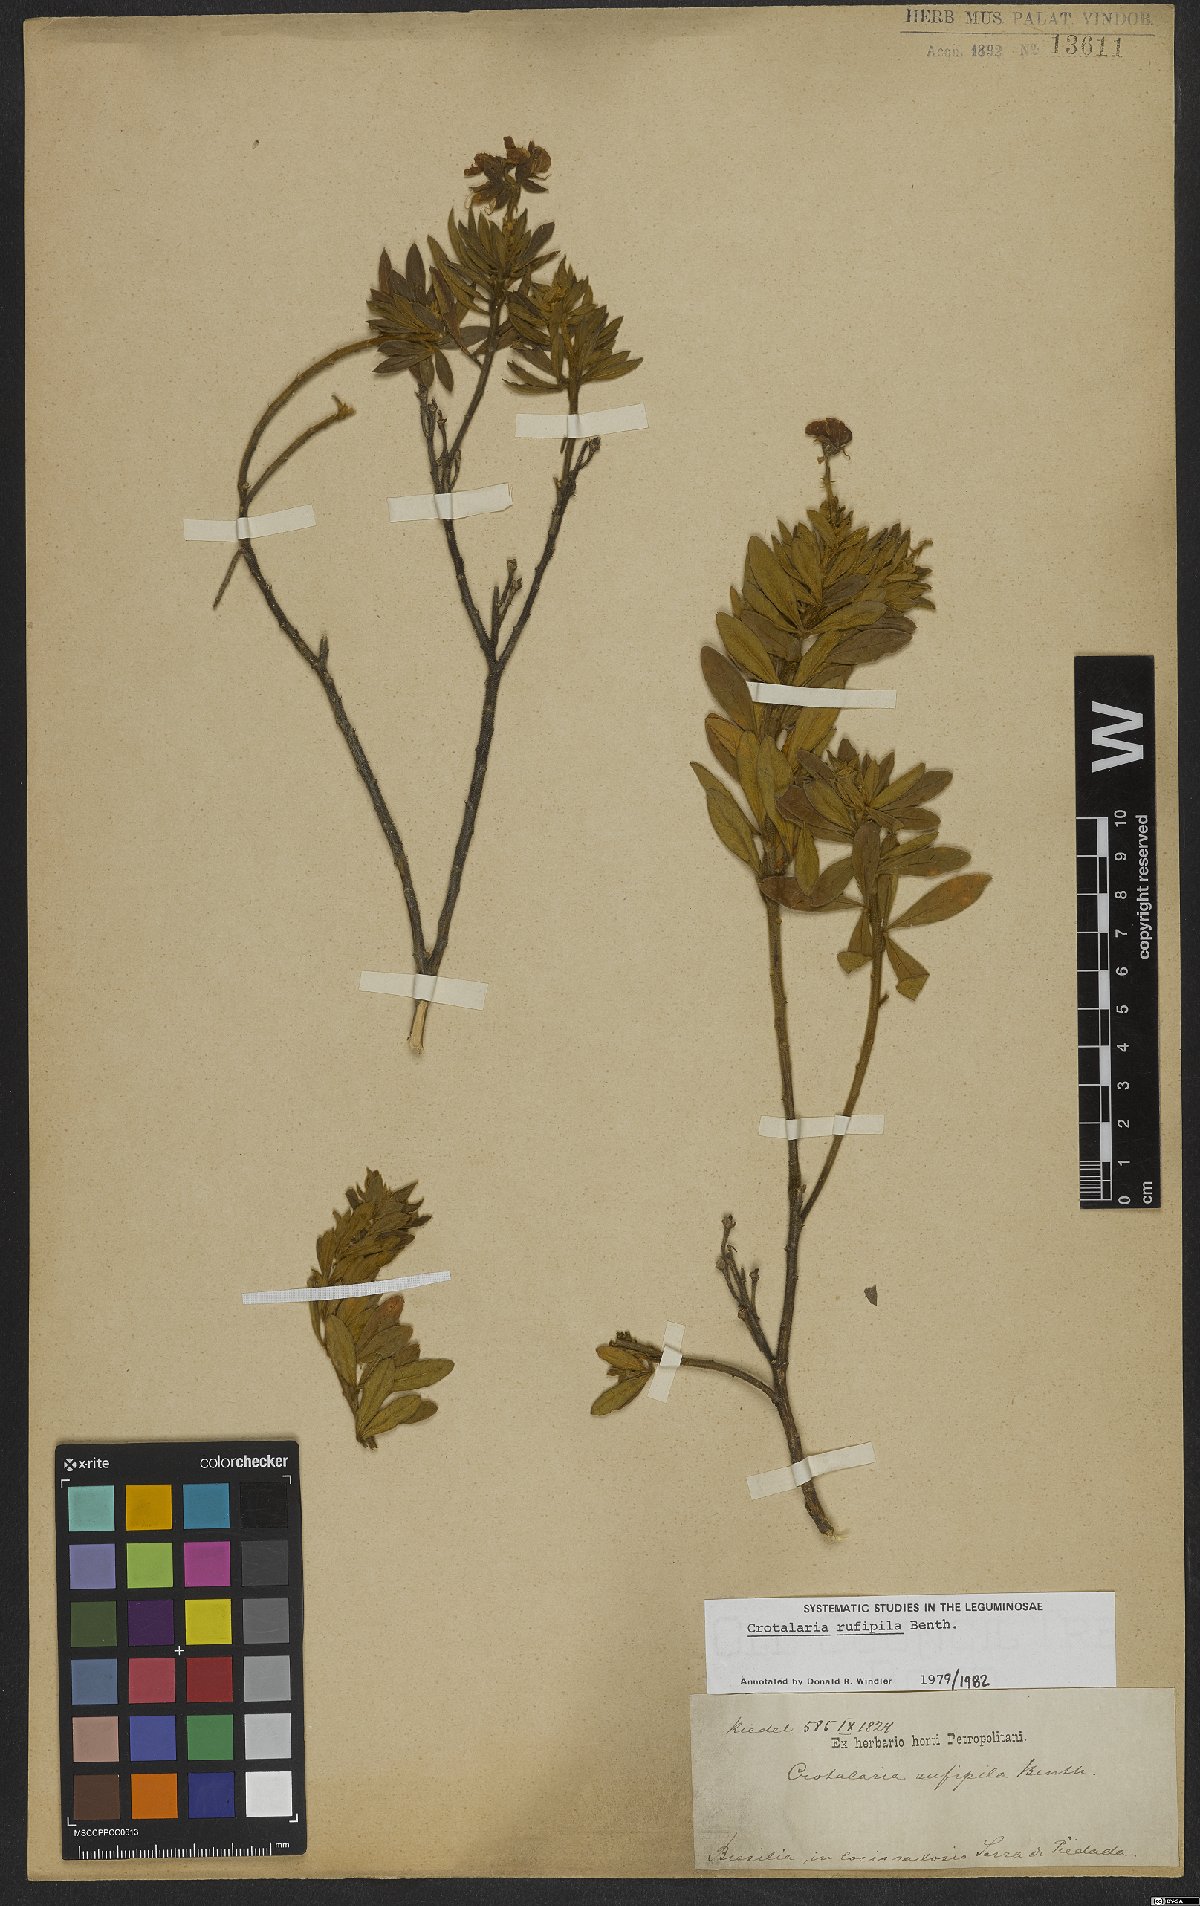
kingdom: Plantae
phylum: Tracheophyta
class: Magnoliopsida
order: Fabales
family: Fabaceae
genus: Crotalaria
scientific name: Crotalaria rufipila
